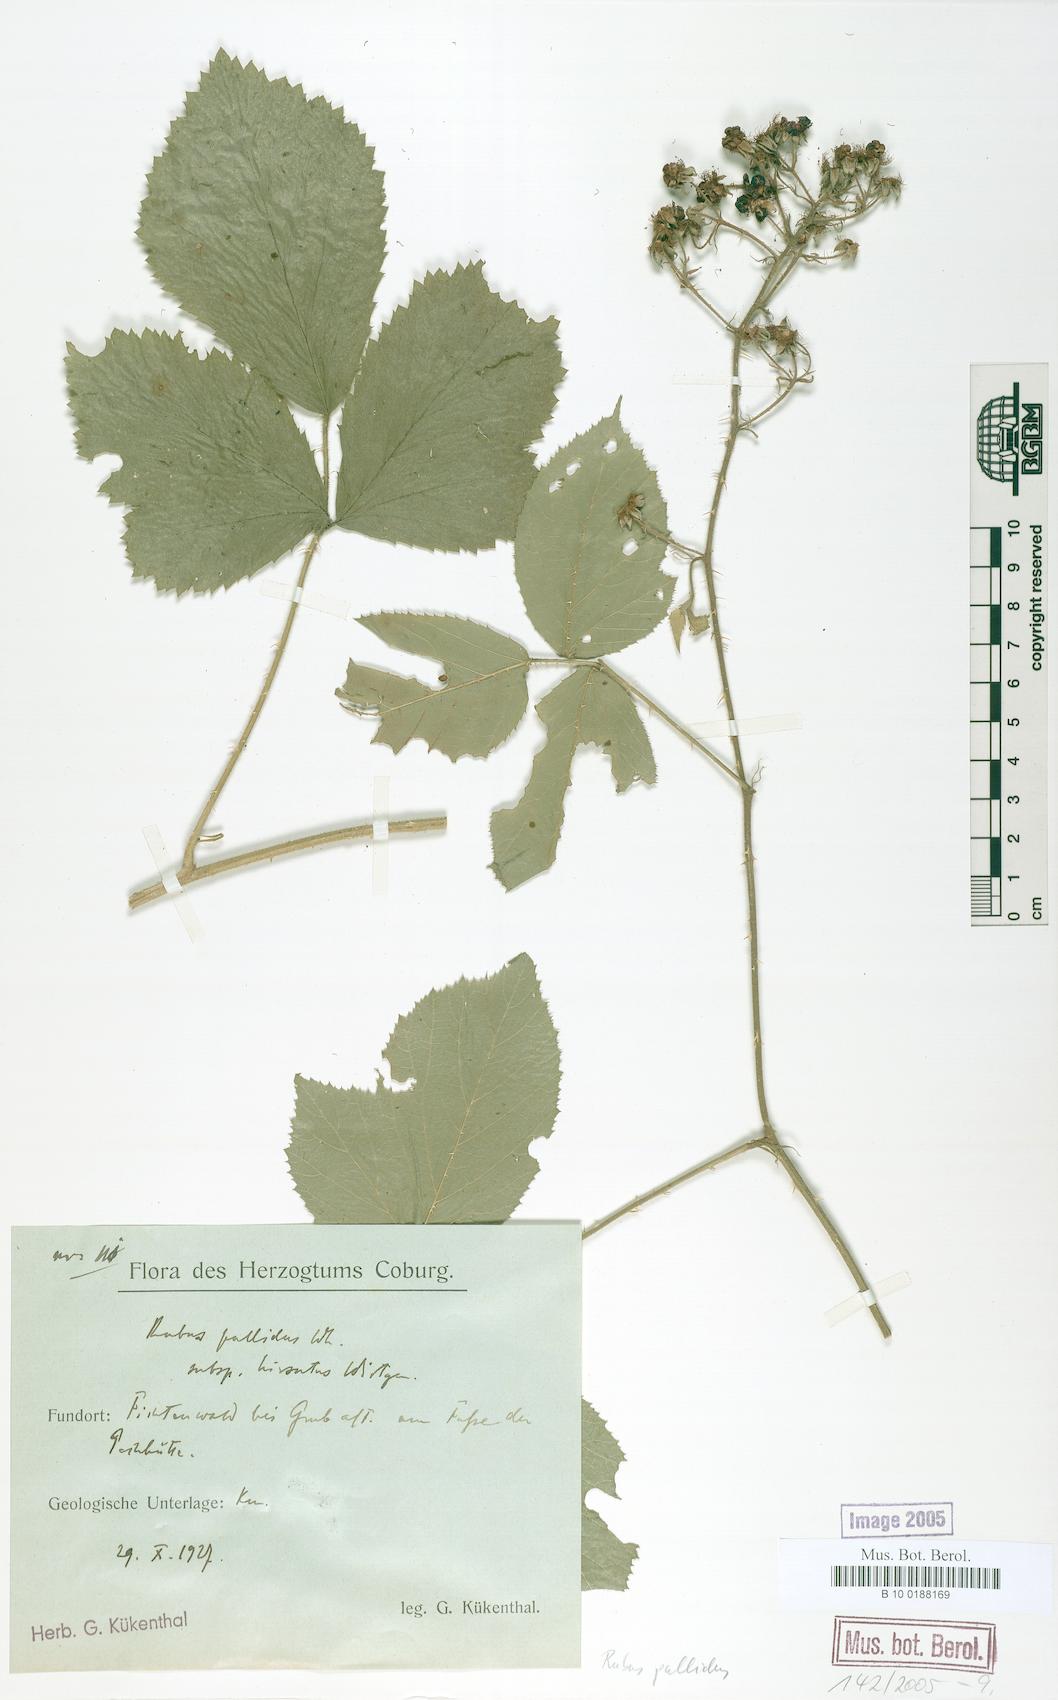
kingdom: Plantae
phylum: Tracheophyta
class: Magnoliopsida
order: Rosales
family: Rosaceae
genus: Rubus
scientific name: Rubus pallidus
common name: Pale bramble
